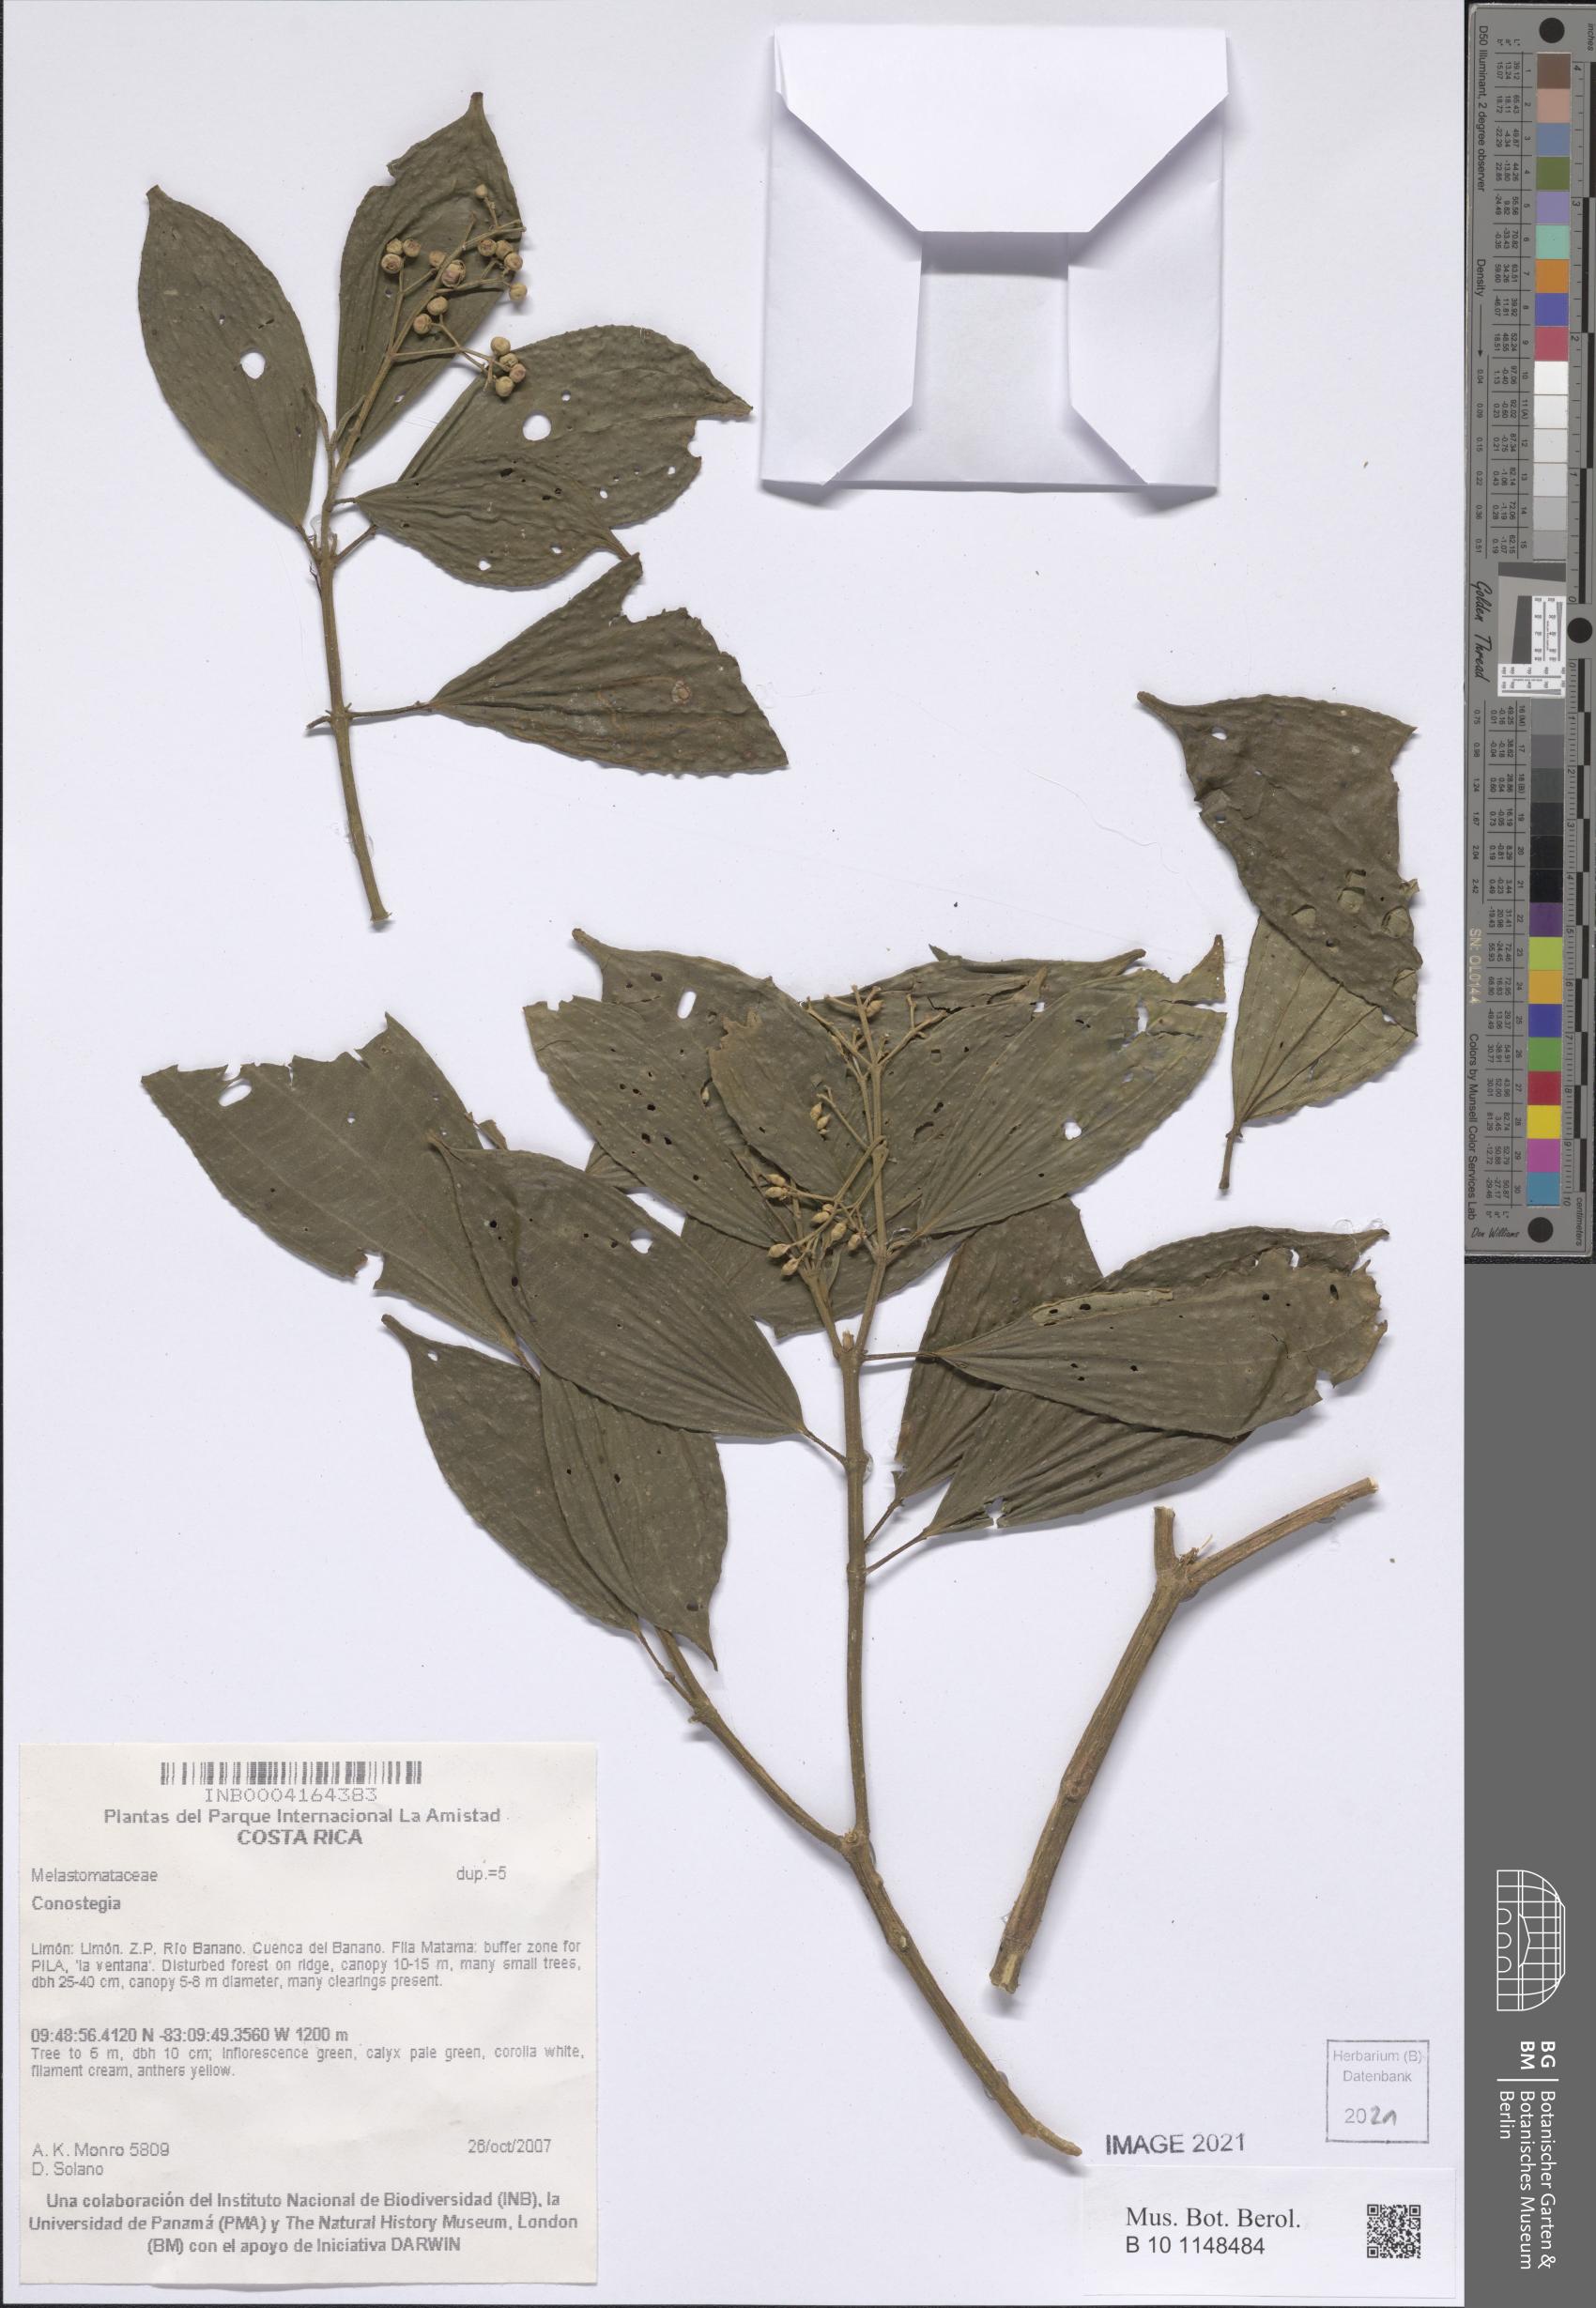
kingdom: Plantae
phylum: Tracheophyta
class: Magnoliopsida
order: Myrtales
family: Melastomataceae
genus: Miconia
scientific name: Miconia
